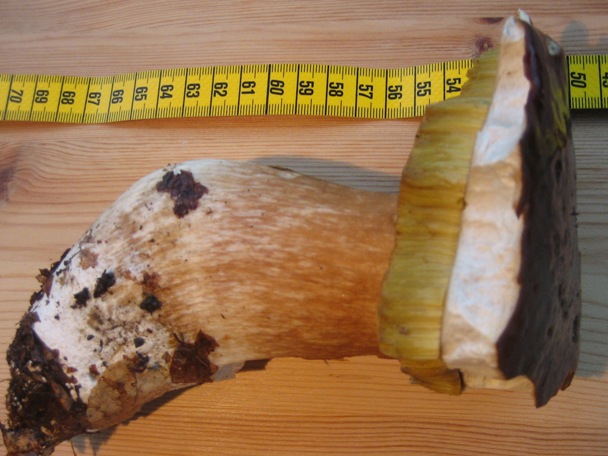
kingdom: Fungi
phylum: Basidiomycota
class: Agaricomycetes
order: Boletales
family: Boletaceae
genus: Boletus
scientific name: Boletus edulis
